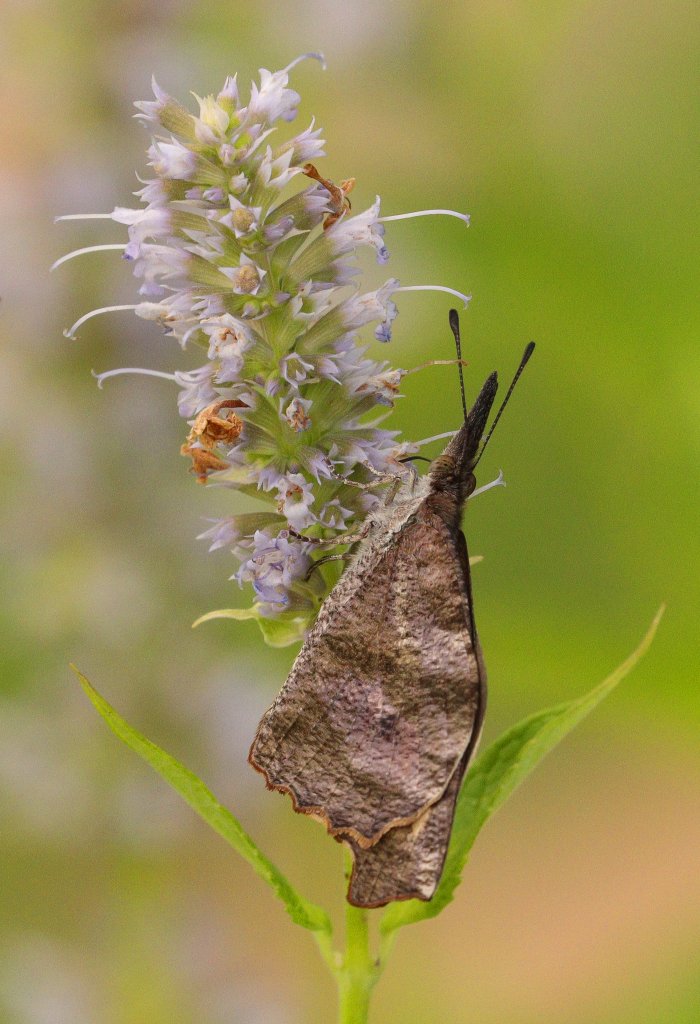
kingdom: Animalia
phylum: Arthropoda
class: Insecta
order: Lepidoptera
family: Nymphalidae
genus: Libytheana
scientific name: Libytheana carinenta
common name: American Snout
